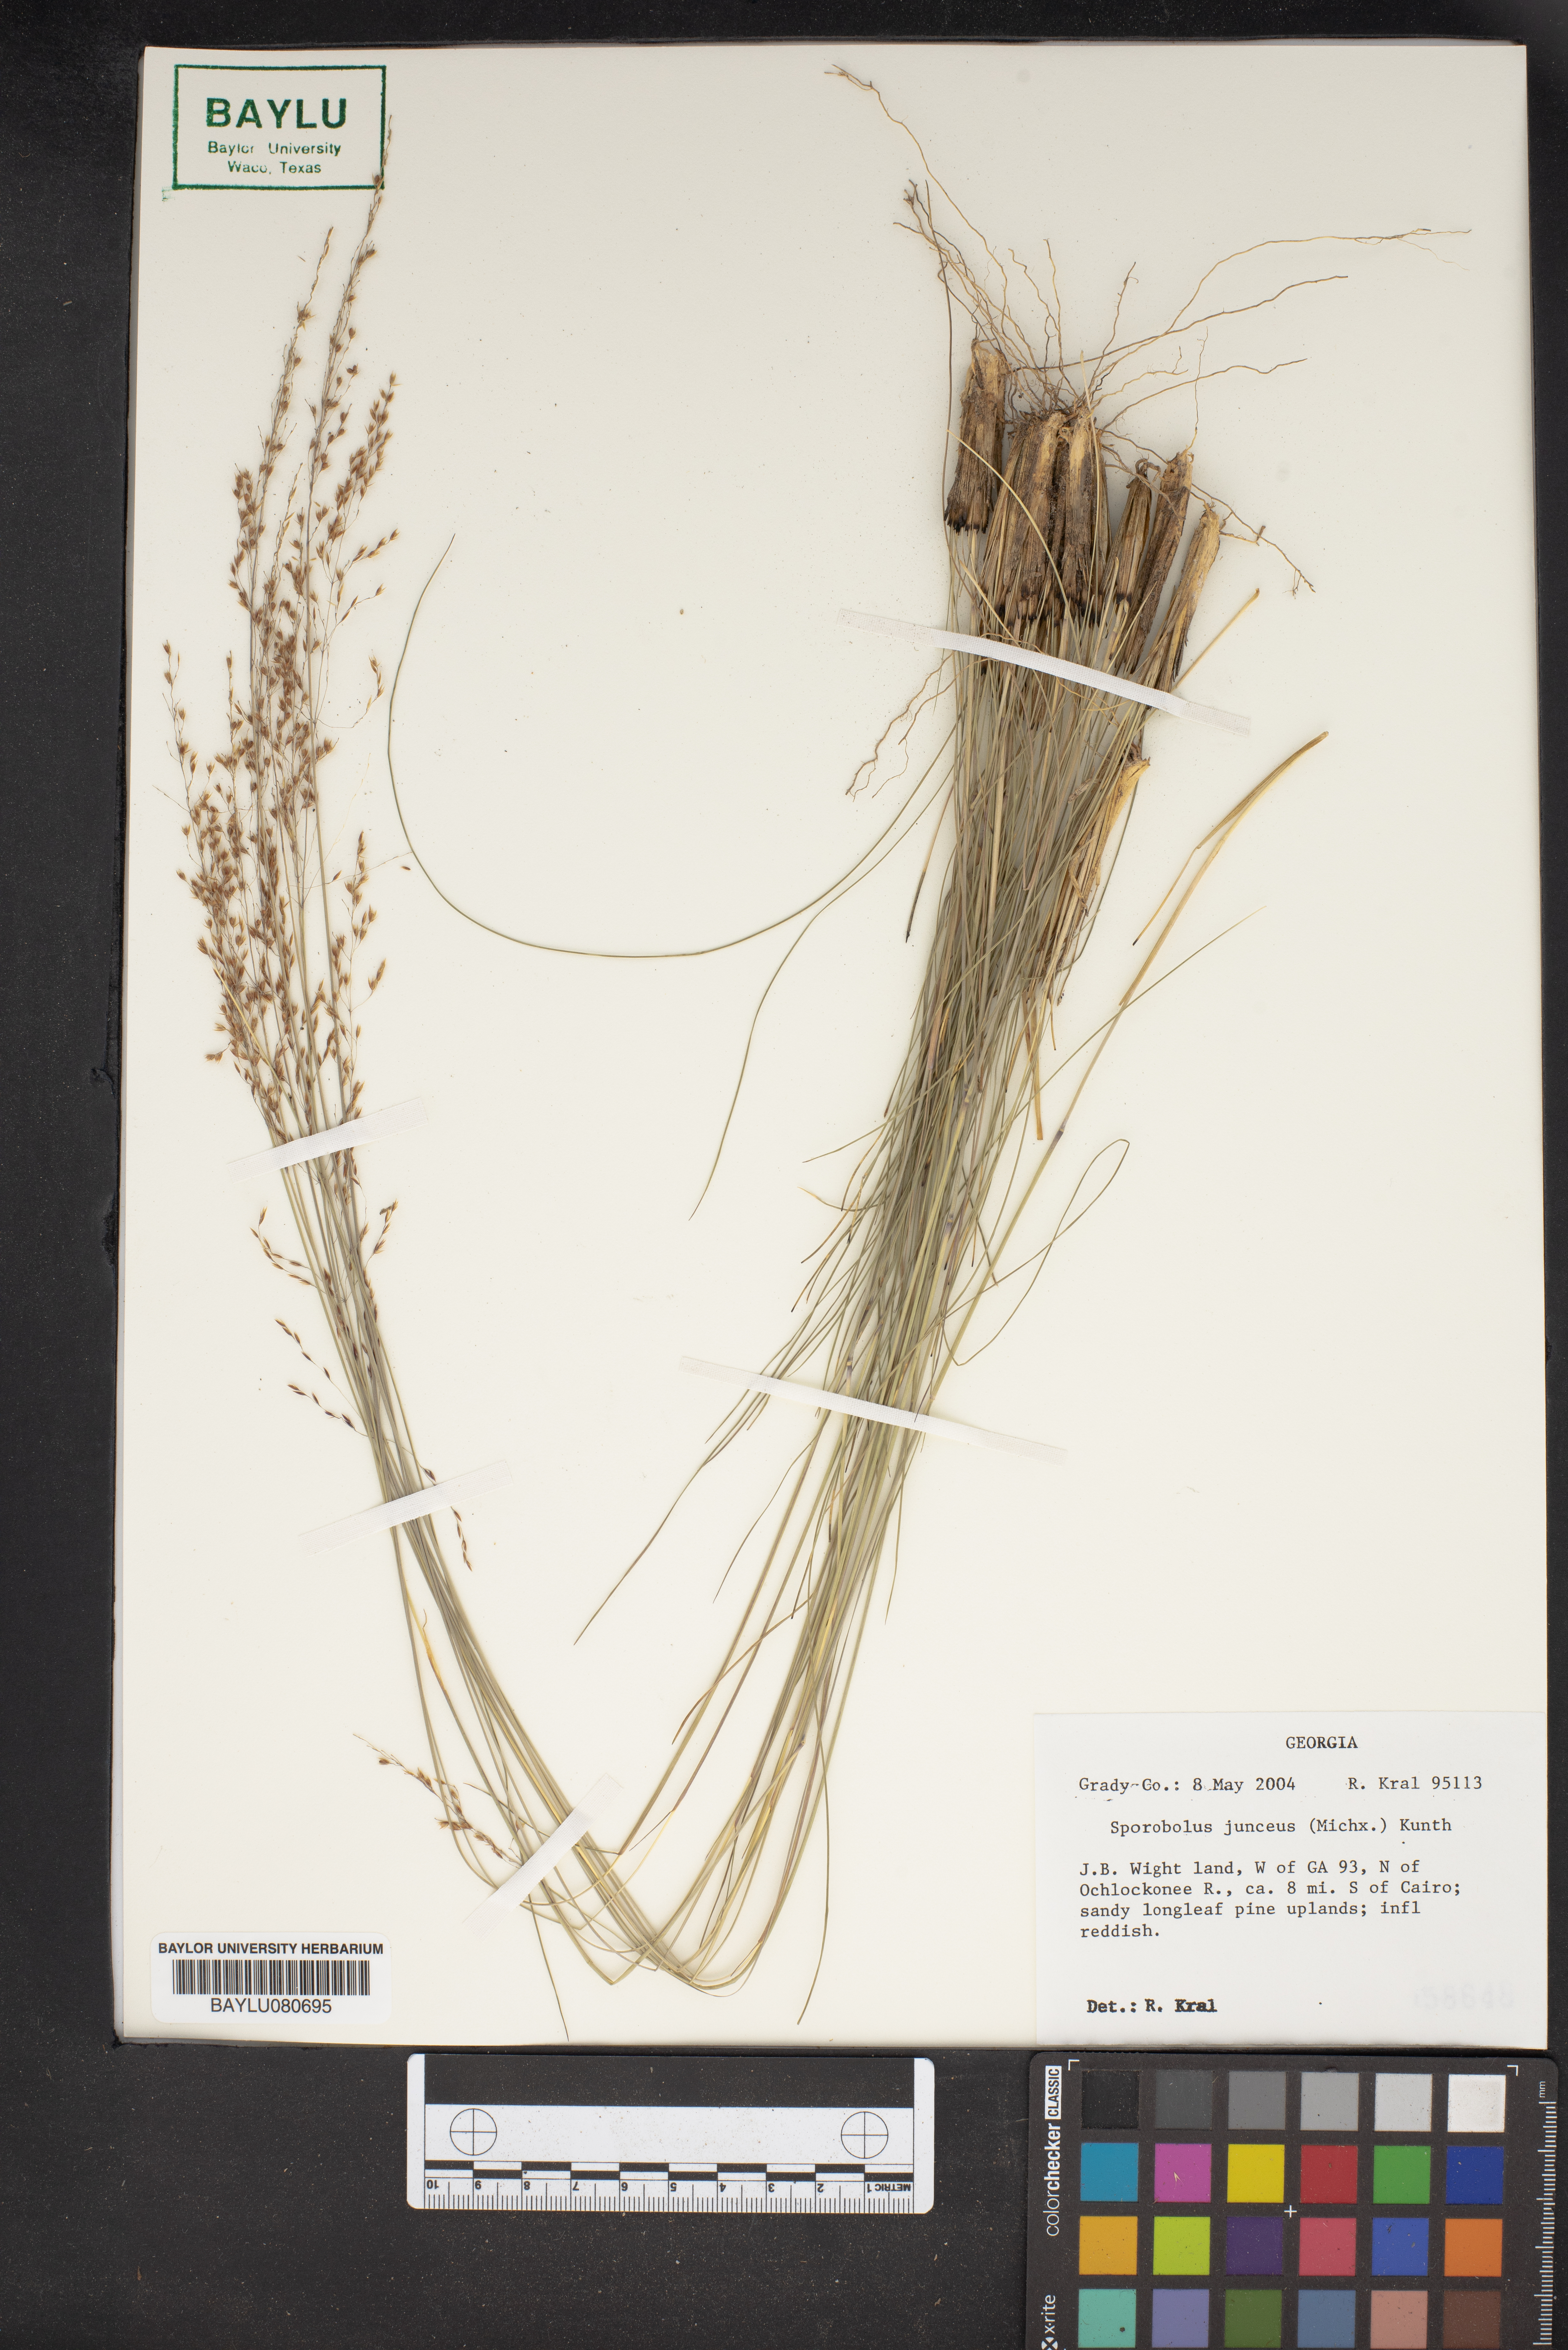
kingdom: Plantae
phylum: Tracheophyta
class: Liliopsida
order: Poales
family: Poaceae
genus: Sporobolus
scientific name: Sporobolus junceus
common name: Lizard grass
